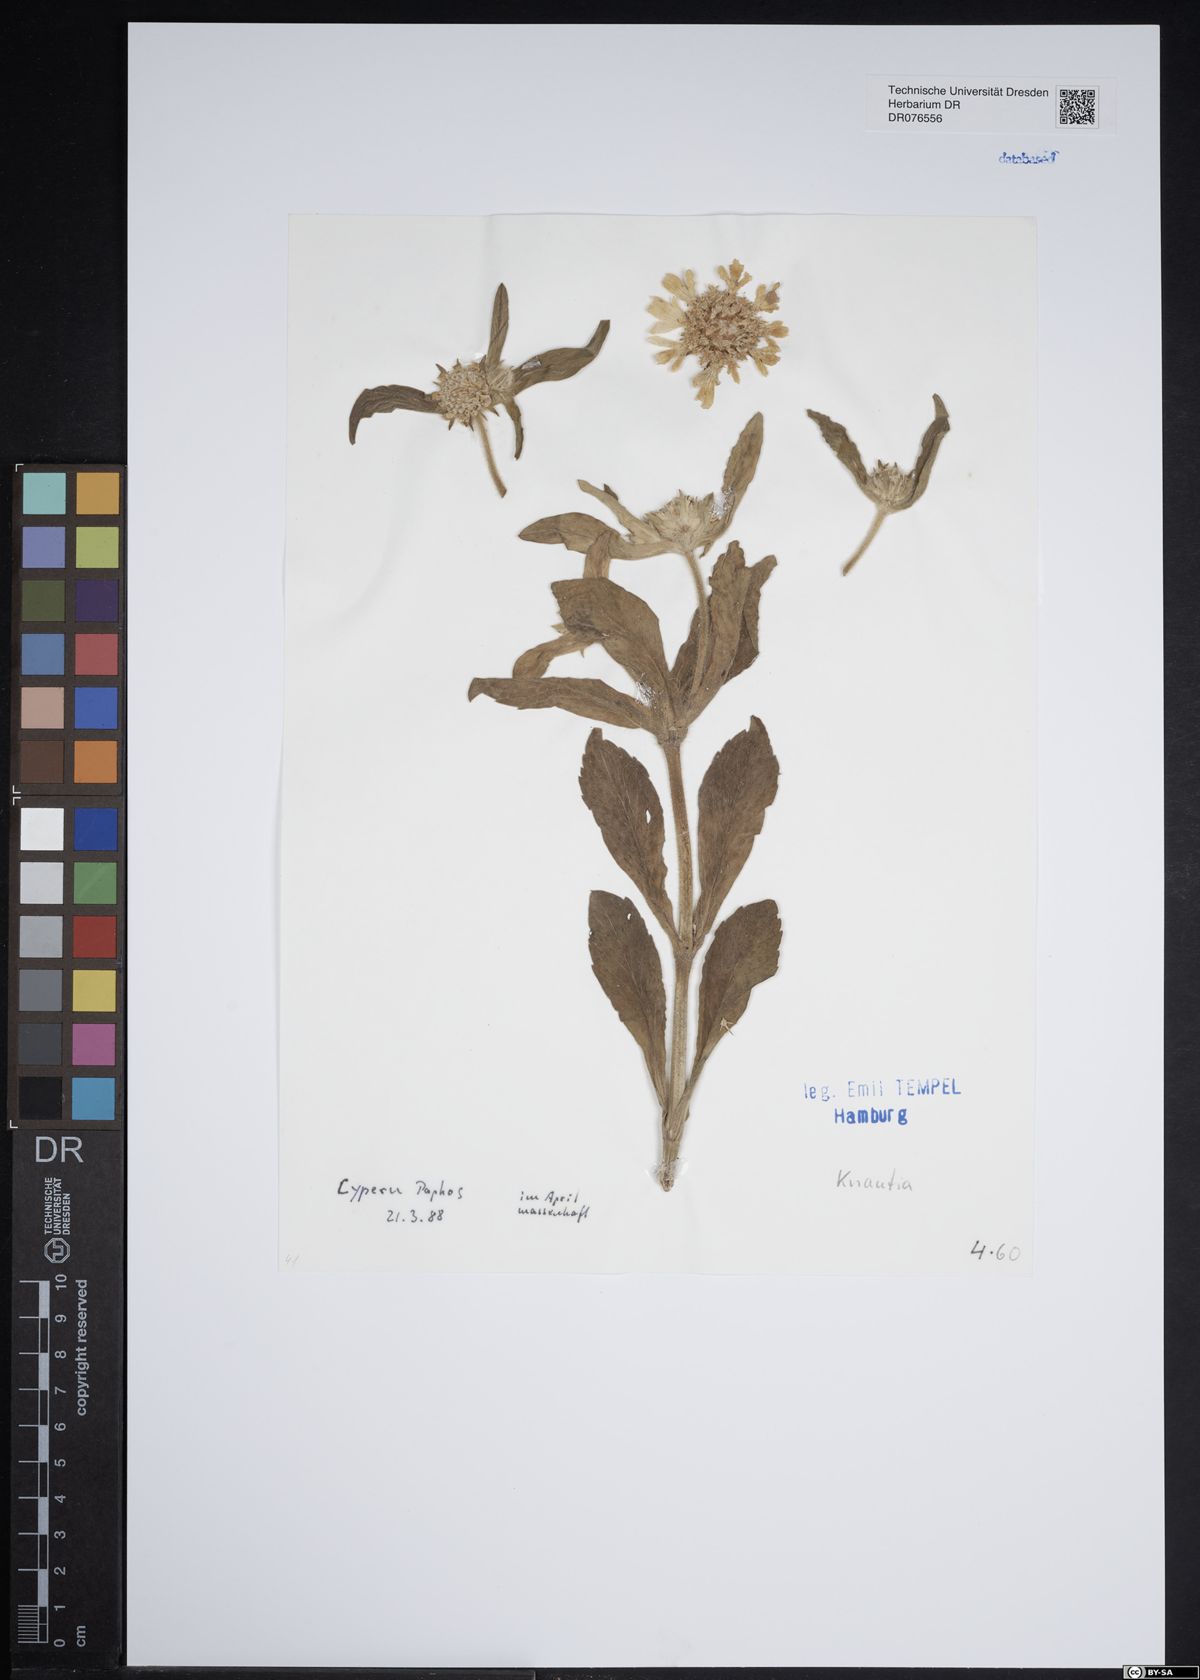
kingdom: Plantae
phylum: Tracheophyta
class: Magnoliopsida
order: Dipsacales
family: Caprifoliaceae
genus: Knautia
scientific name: Knautia
